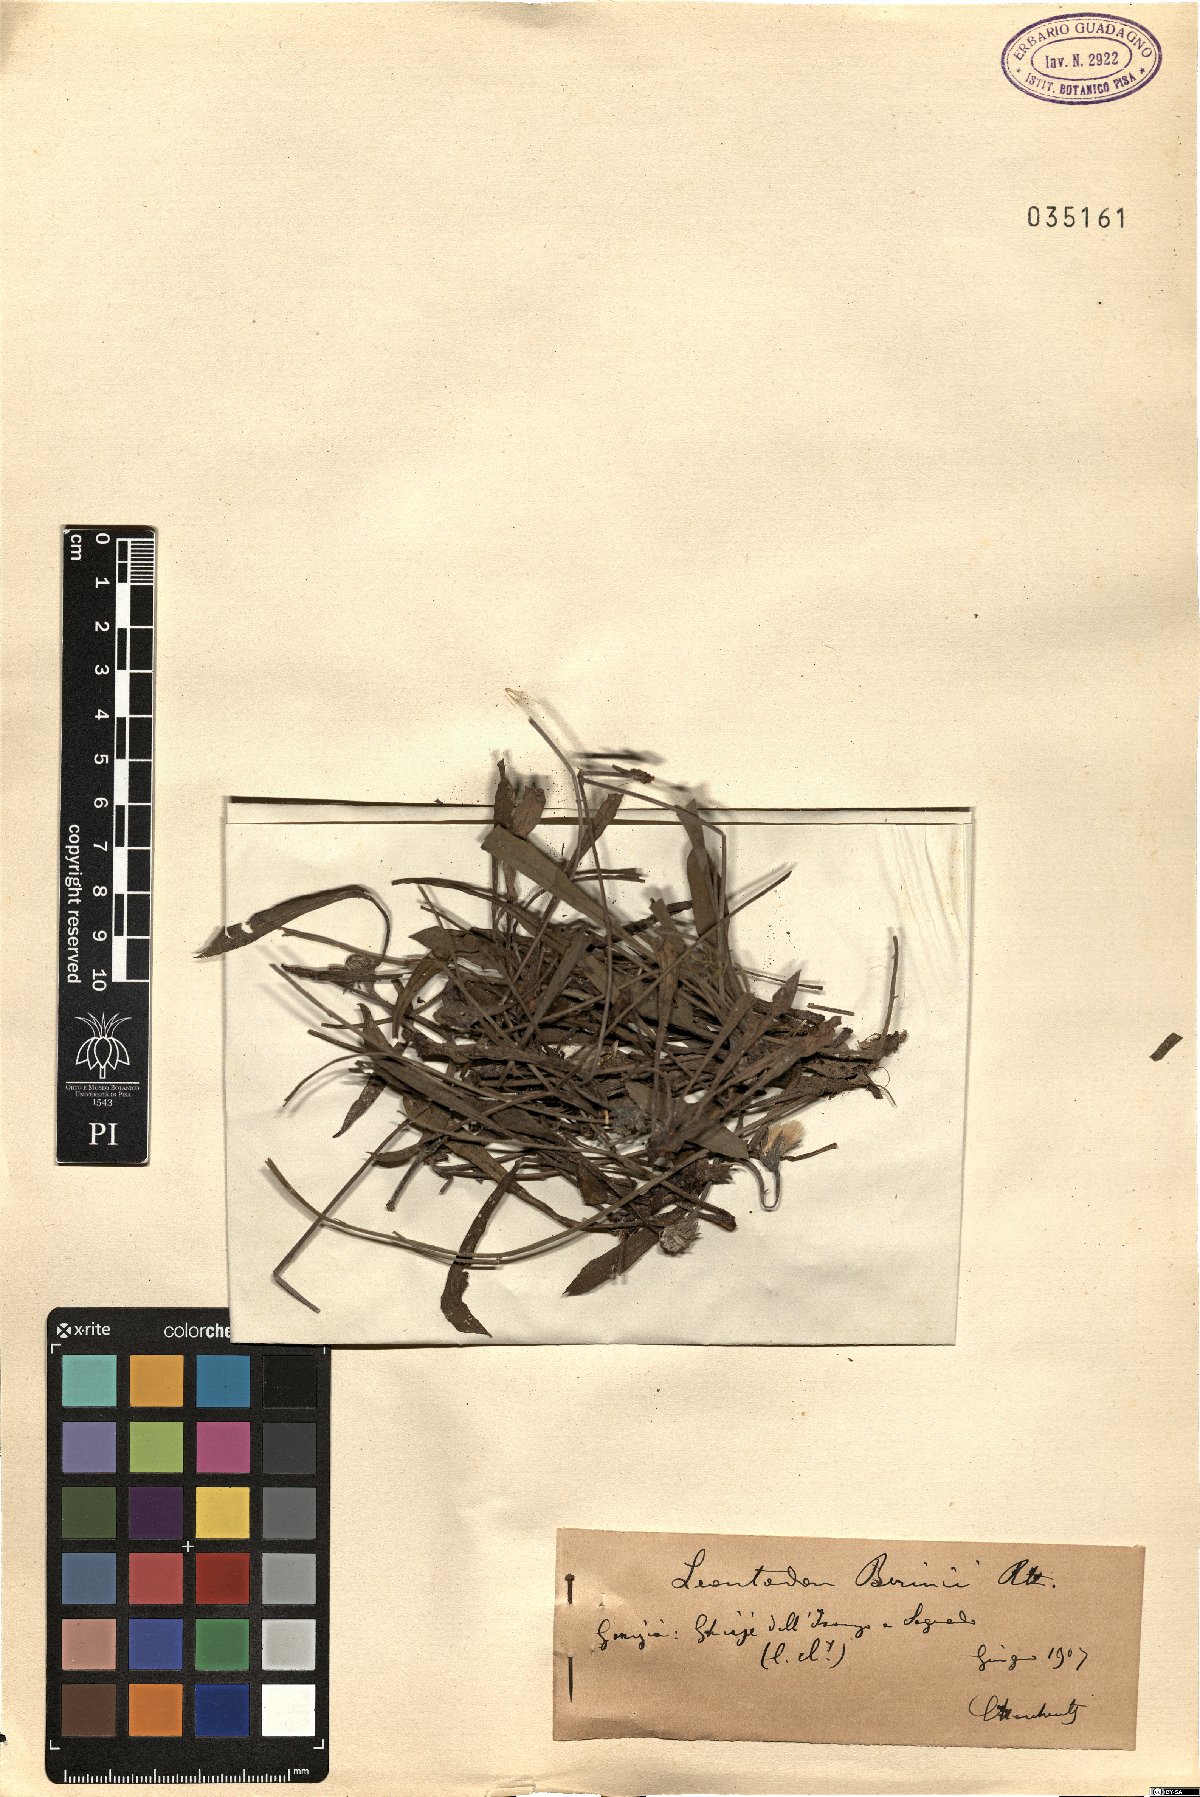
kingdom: Plantae
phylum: Tracheophyta
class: Magnoliopsida
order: Asterales
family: Asteraceae
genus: Leontodon
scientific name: Leontodon berinii
